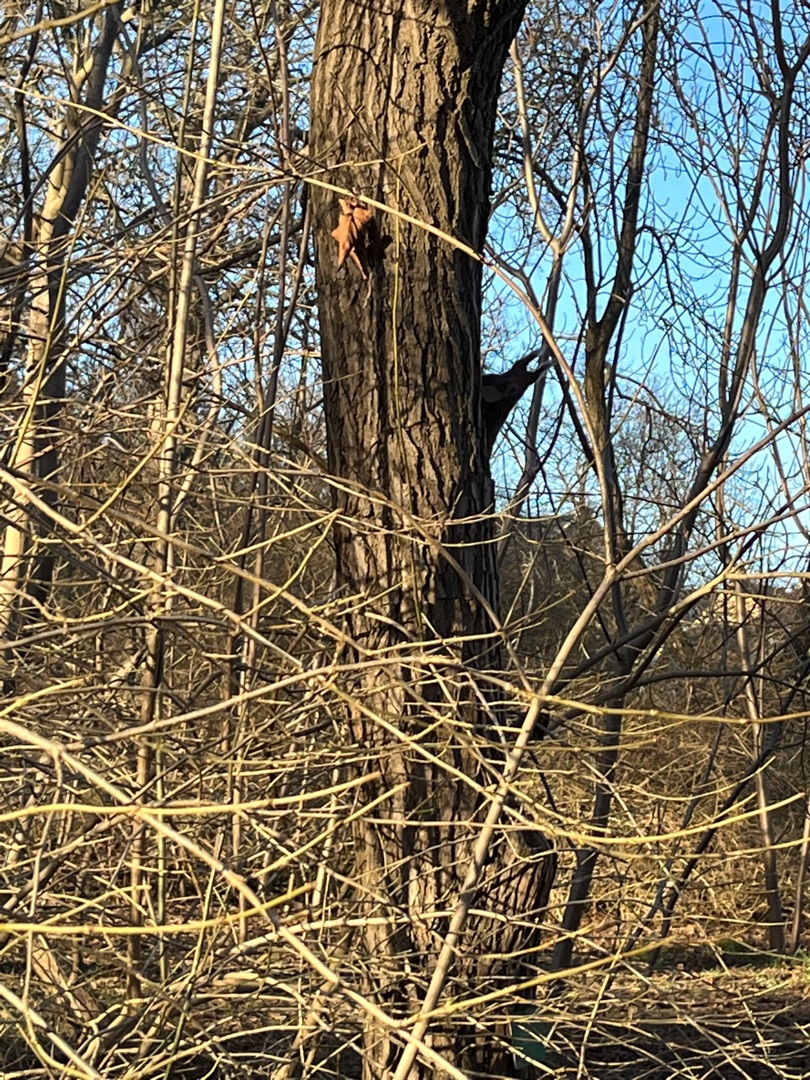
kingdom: Animalia
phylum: Chordata
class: Mammalia
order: Rodentia
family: Sciuridae
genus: Sciurus
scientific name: Sciurus vulgaris
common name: Egern
